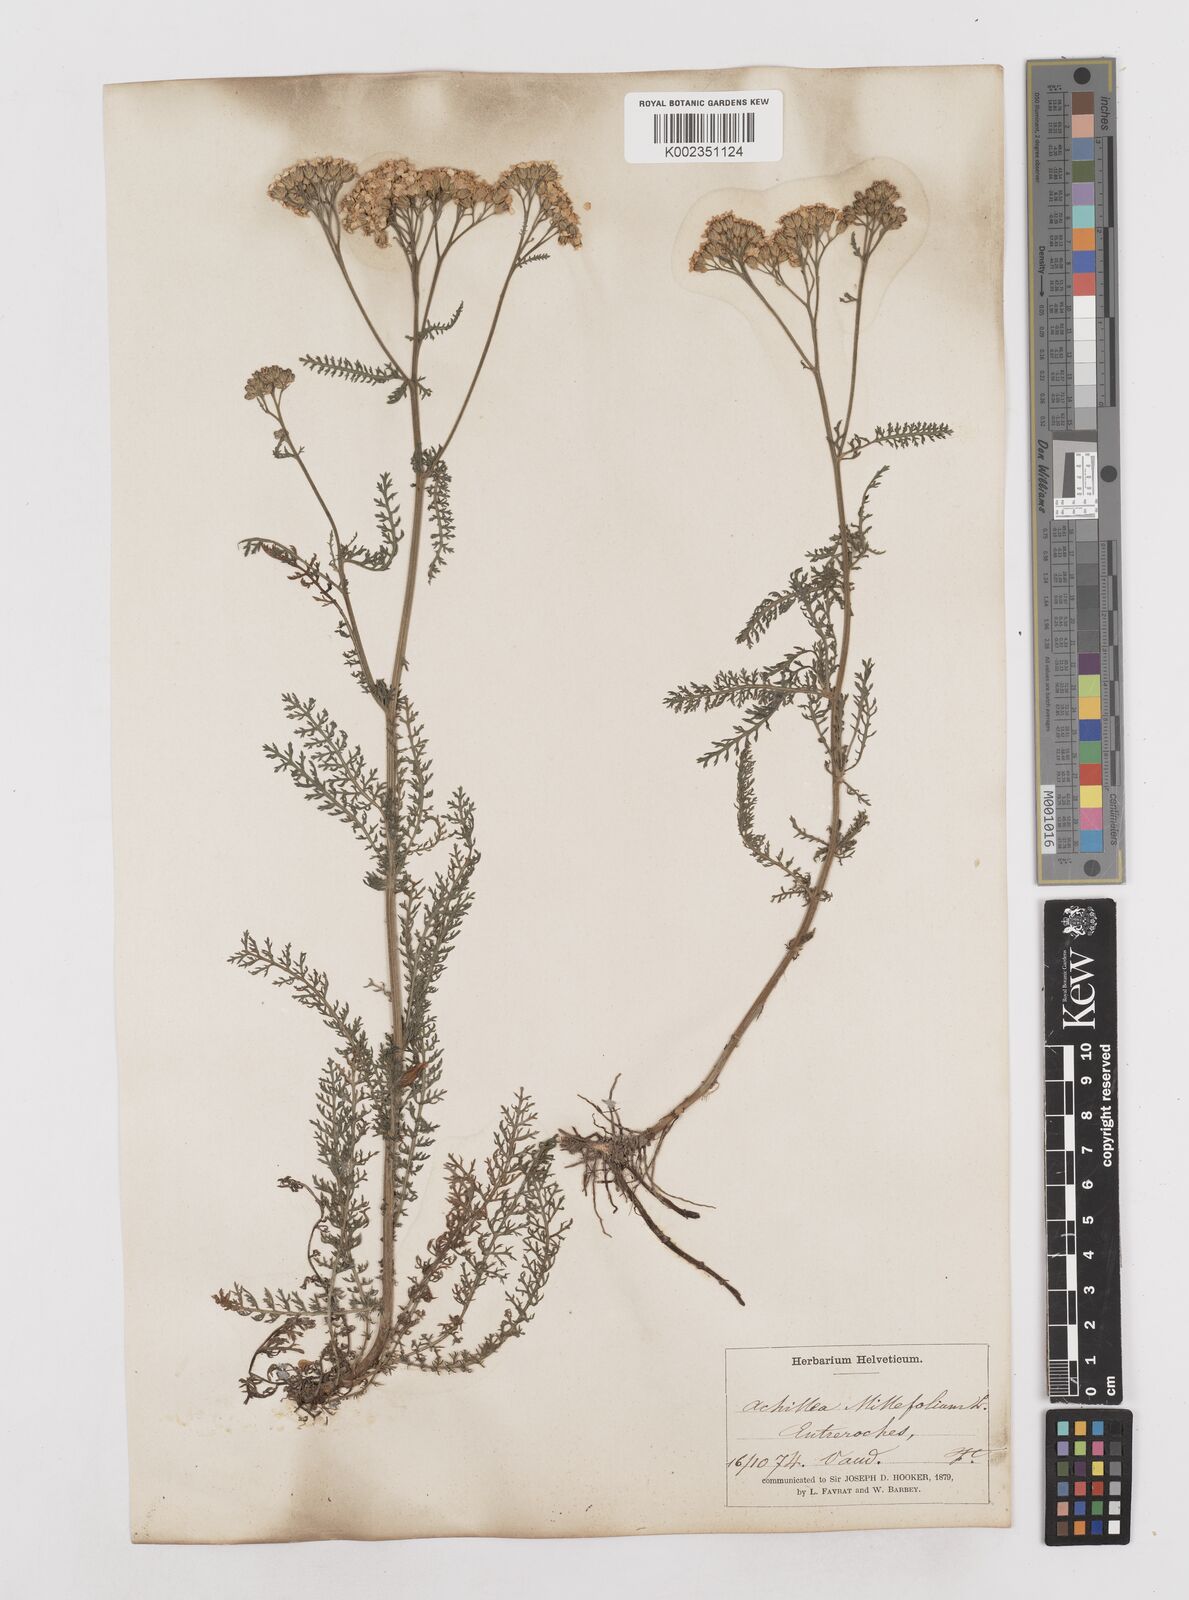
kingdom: Plantae
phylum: Tracheophyta
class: Magnoliopsida
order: Asterales
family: Asteraceae
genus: Achillea
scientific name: Achillea millefolium
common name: Yarrow
